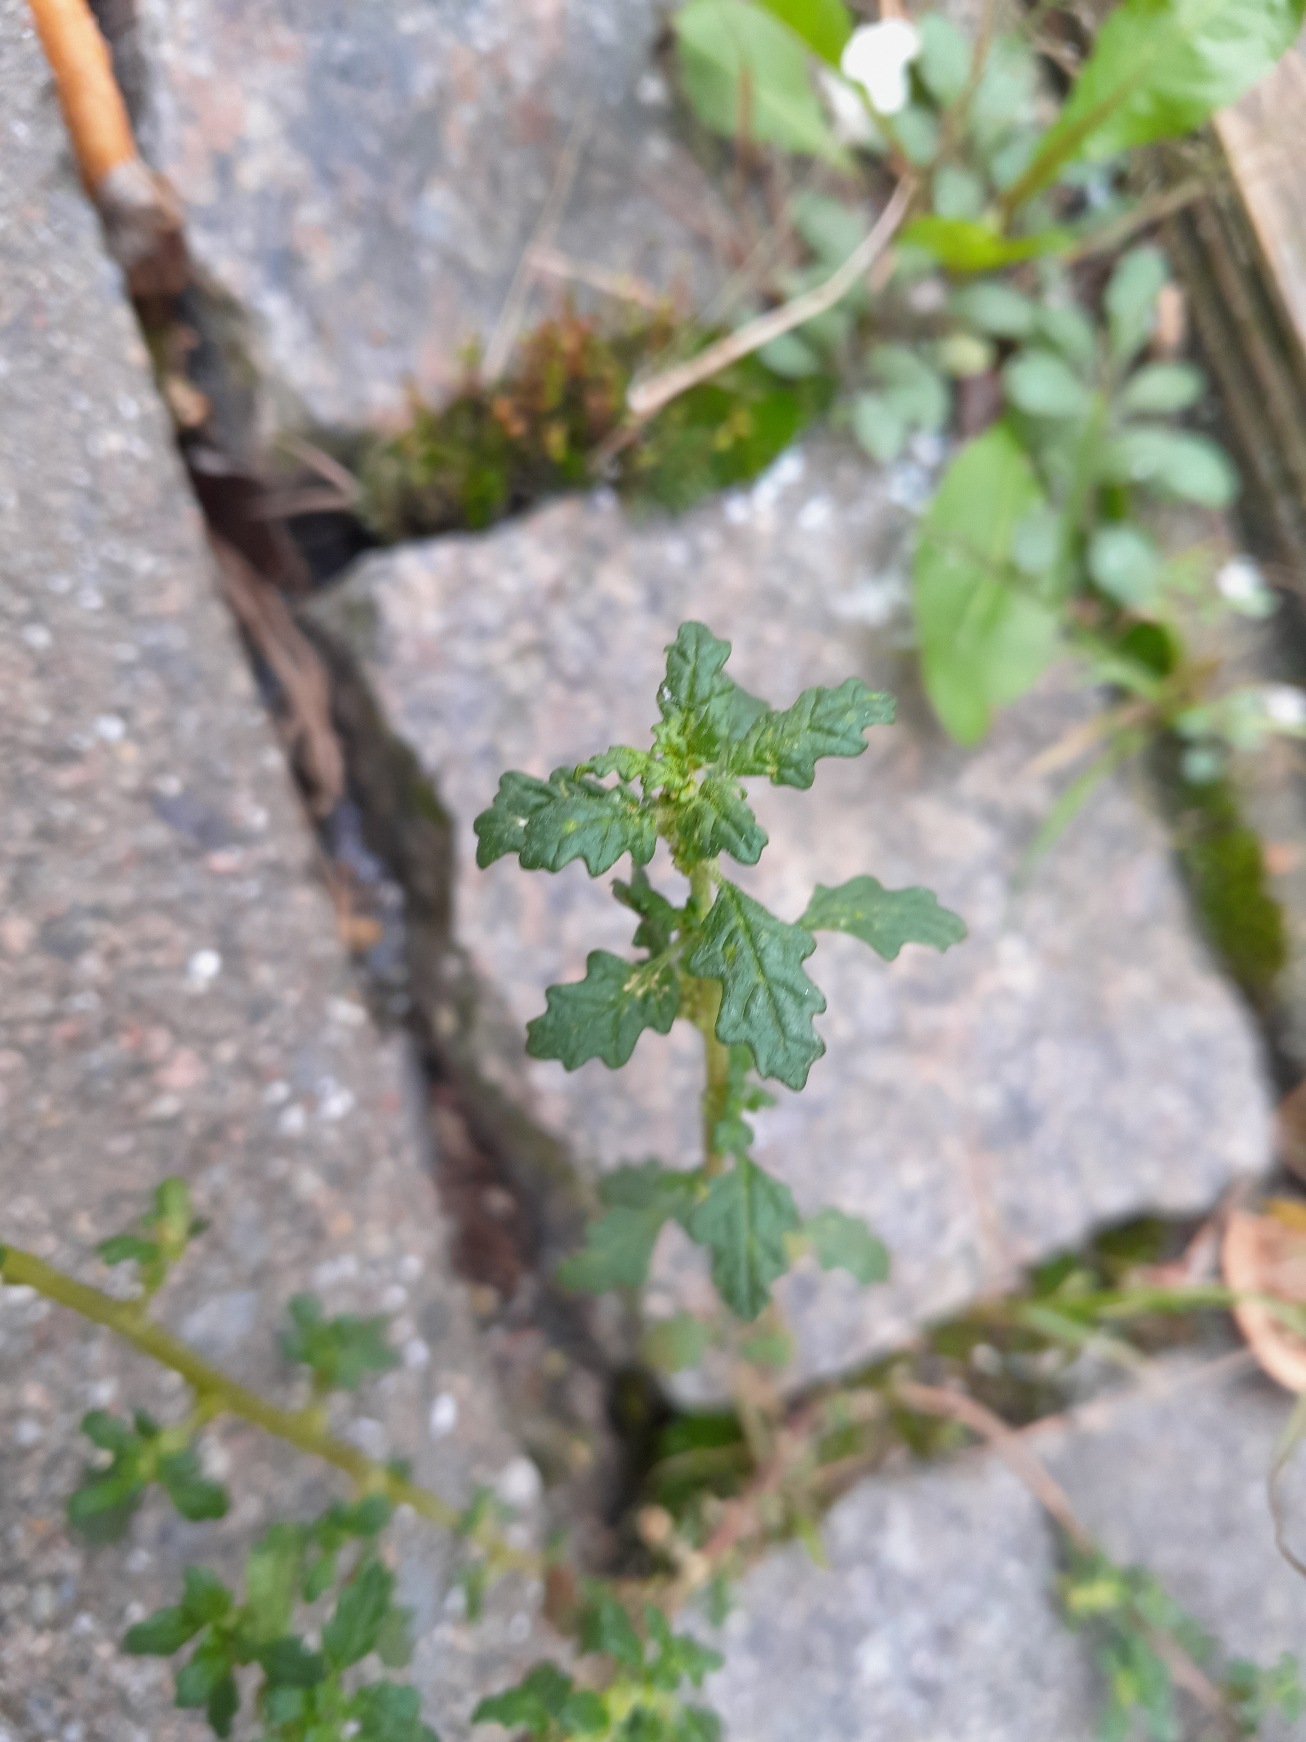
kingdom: Plantae
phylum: Tracheophyta
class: Magnoliopsida
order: Caryophyllales
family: Amaranthaceae
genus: Dysphania
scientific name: Dysphania pumilio
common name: Dværg-gåsefod
